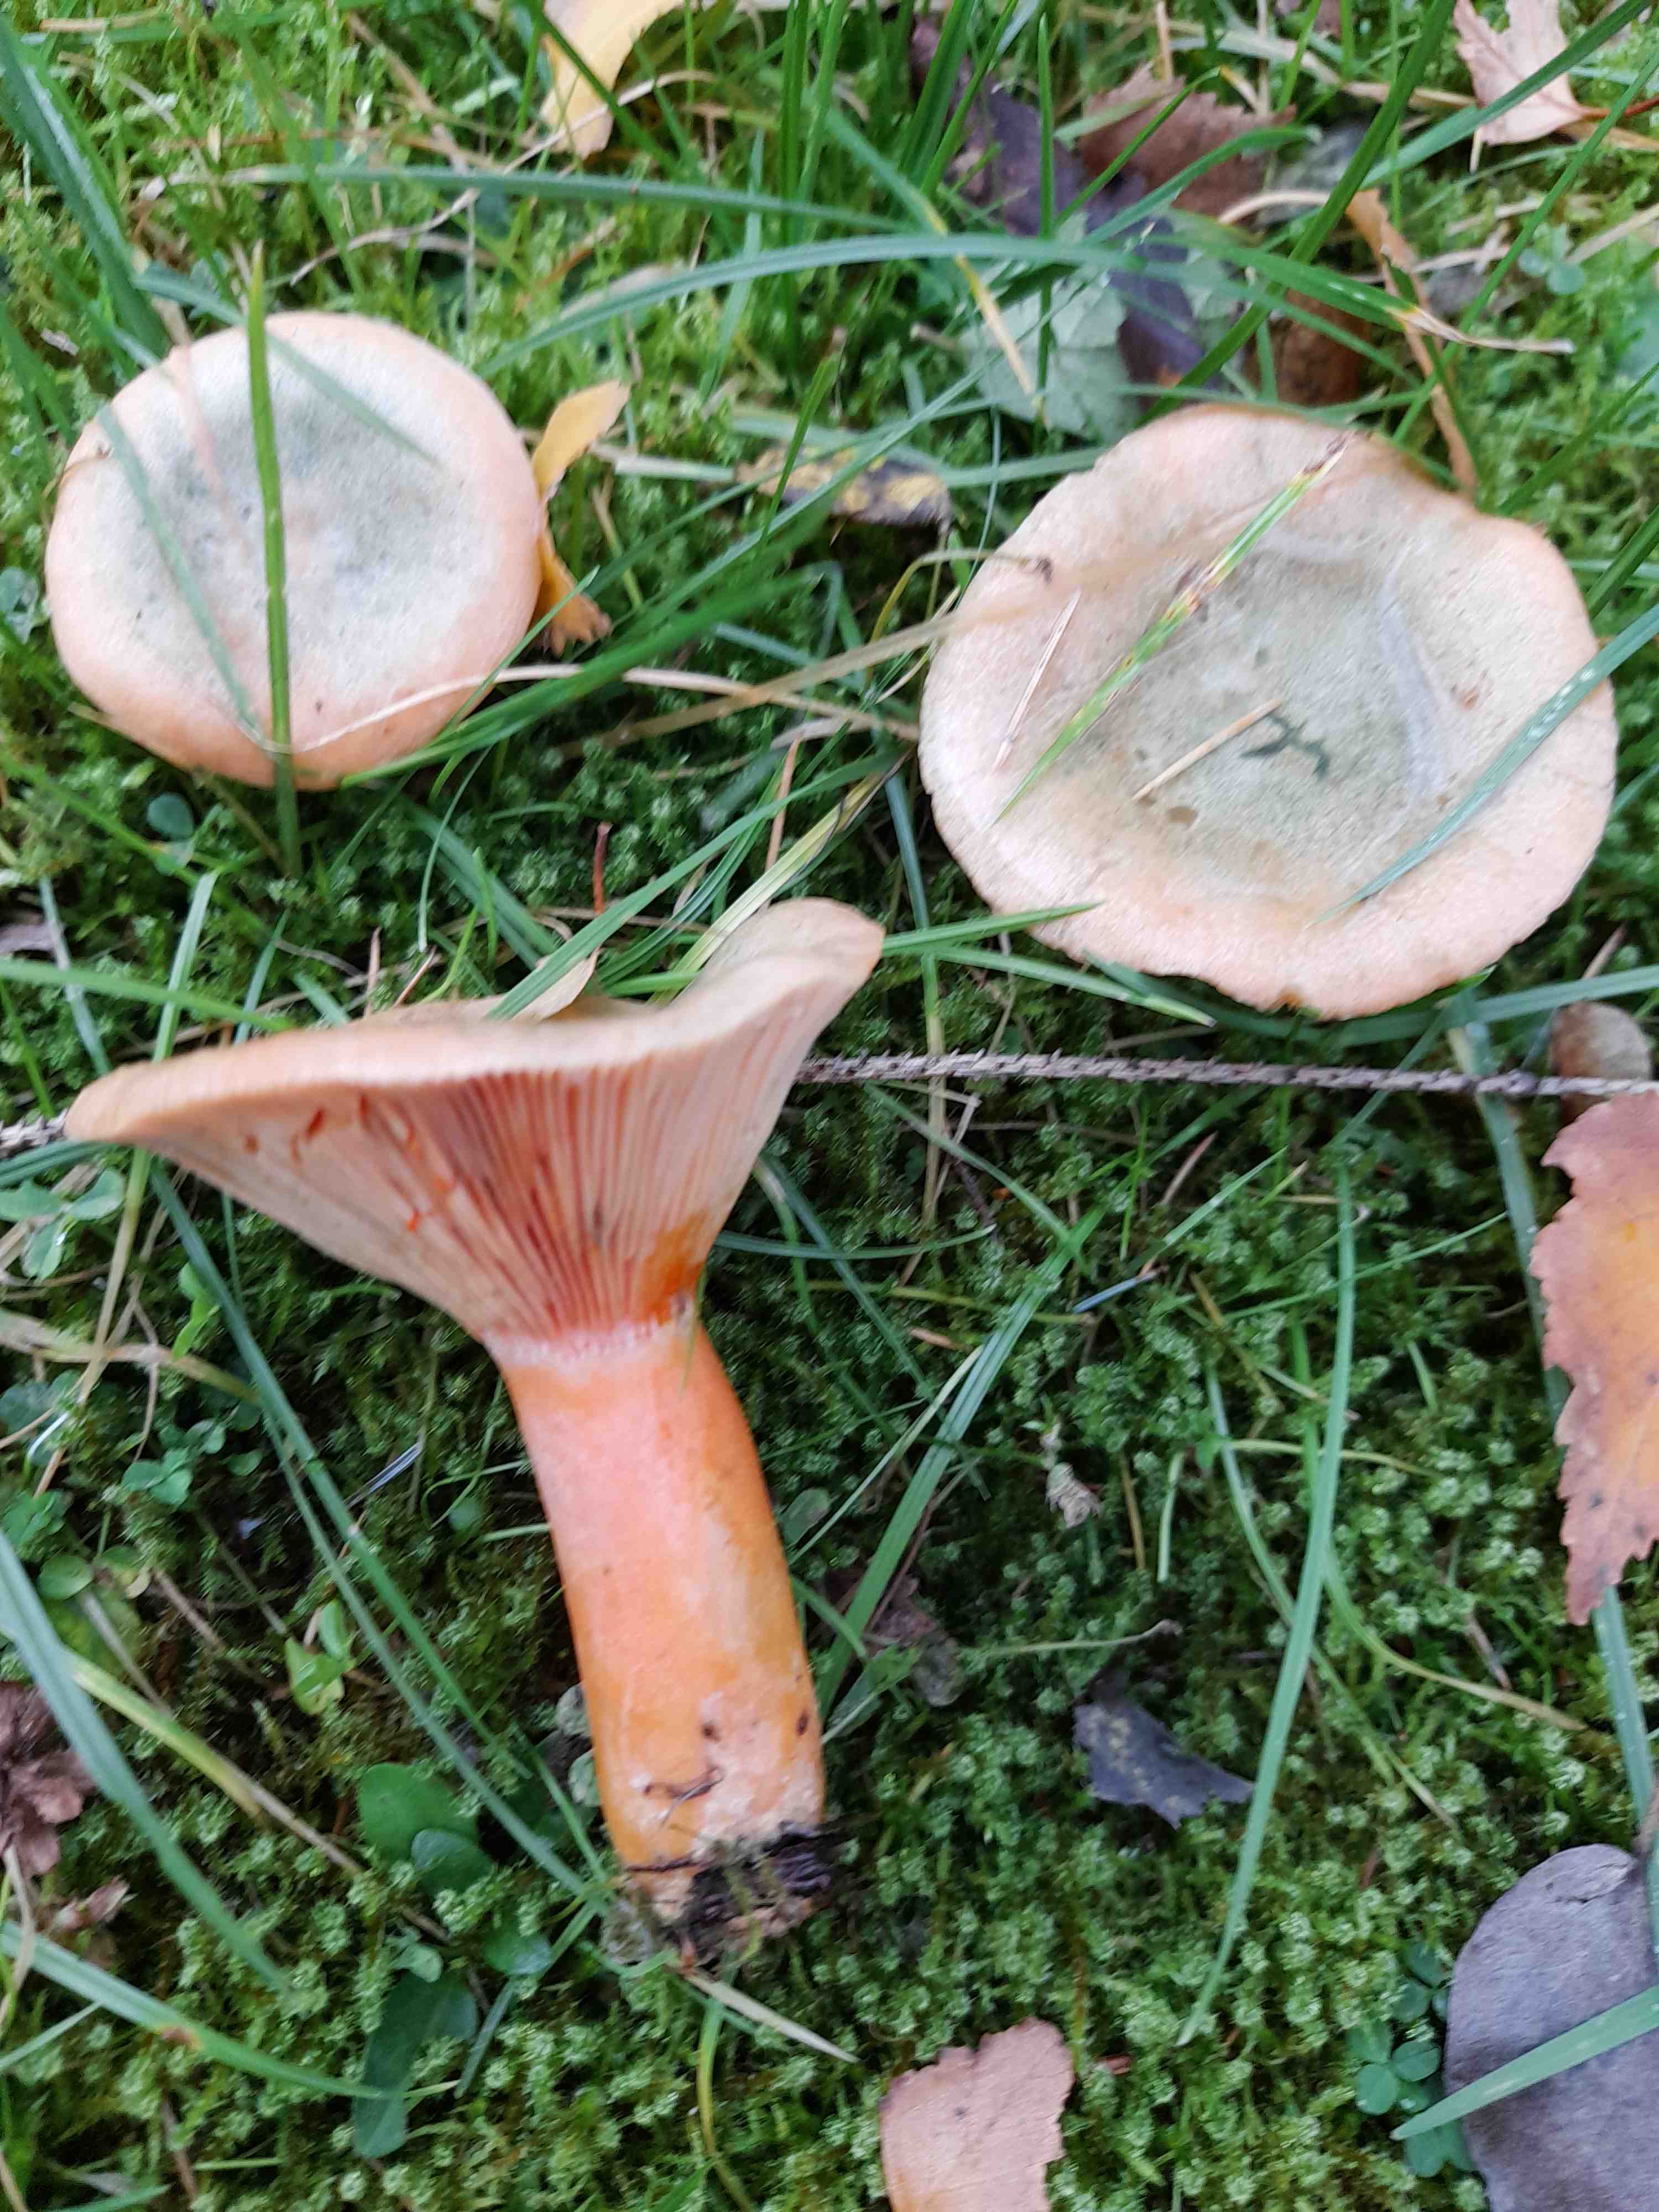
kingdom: Fungi
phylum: Basidiomycota
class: Agaricomycetes
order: Russulales
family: Russulaceae
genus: Lactarius
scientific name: Lactarius deterrimus
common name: gran-mælkehat
